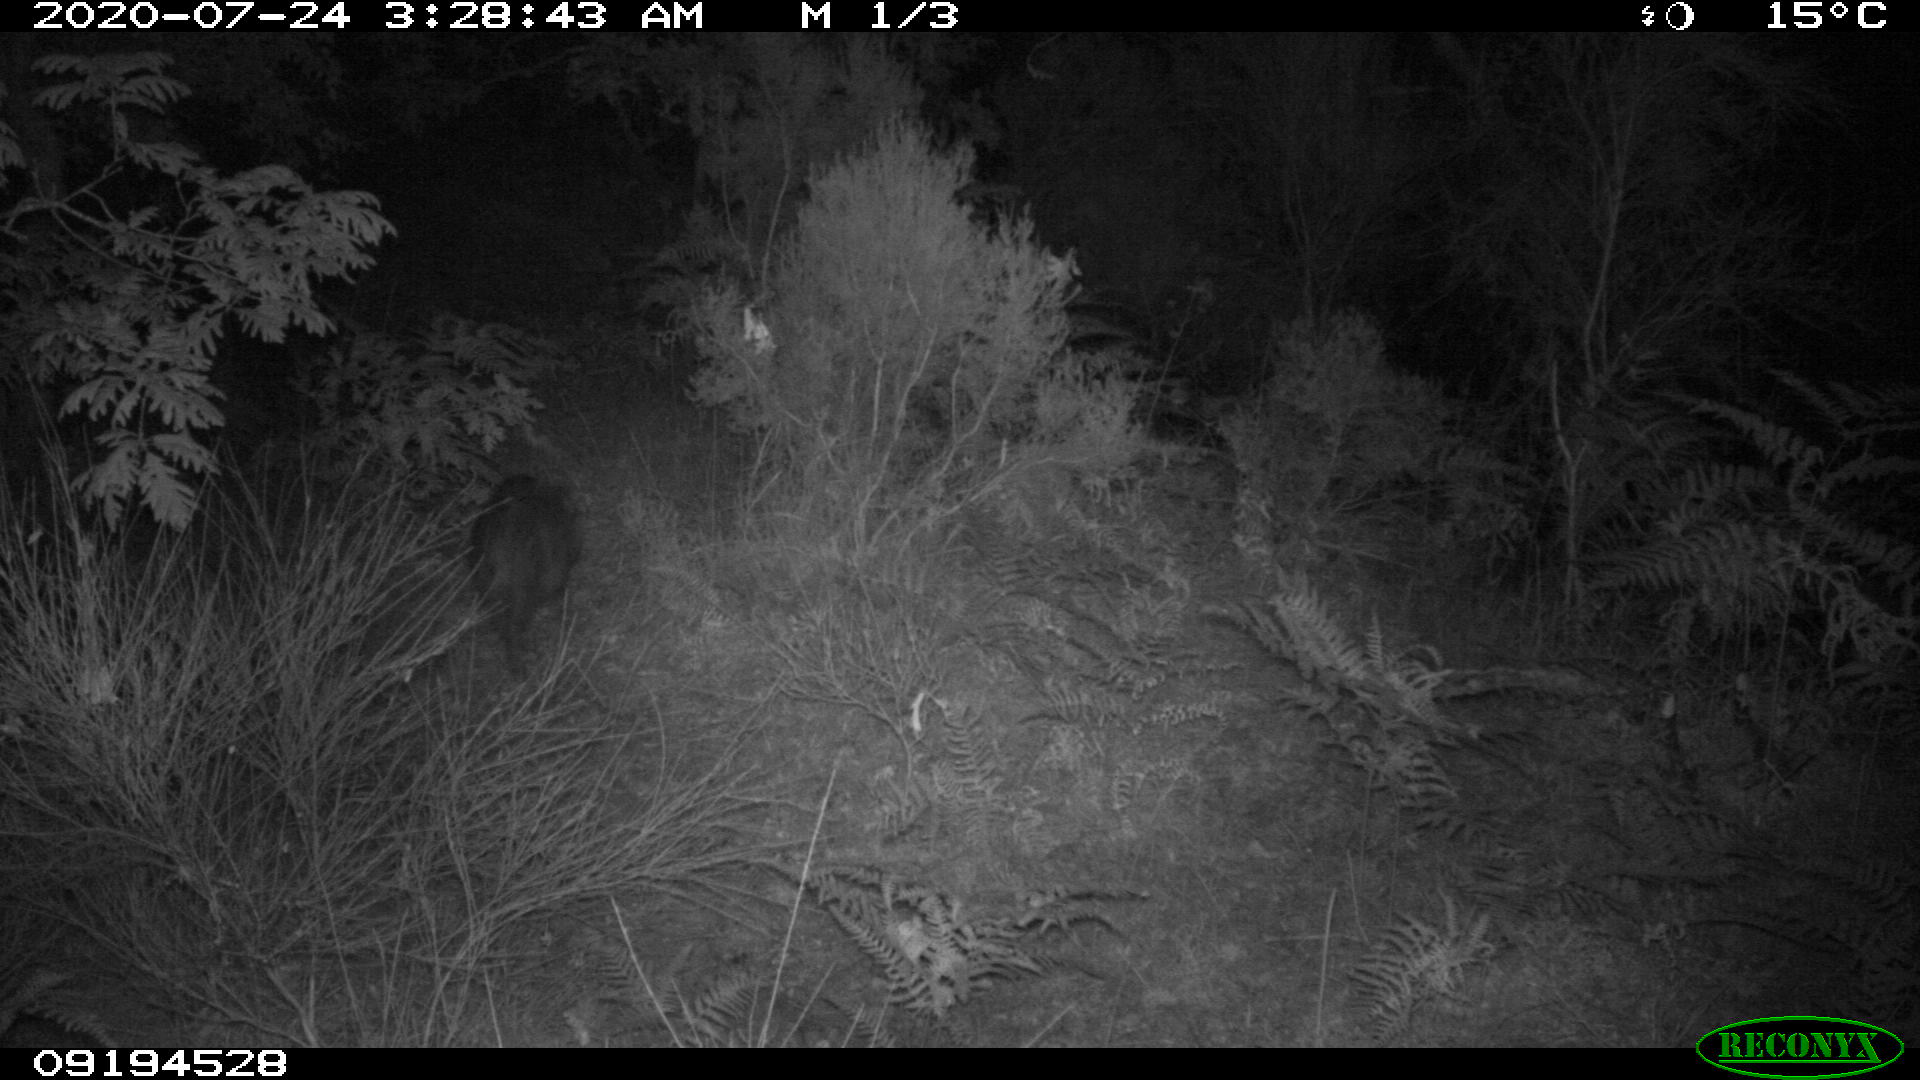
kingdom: Animalia
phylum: Chordata
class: Mammalia
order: Artiodactyla
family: Suidae
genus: Sus
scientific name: Sus scrofa
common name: Wild boar
